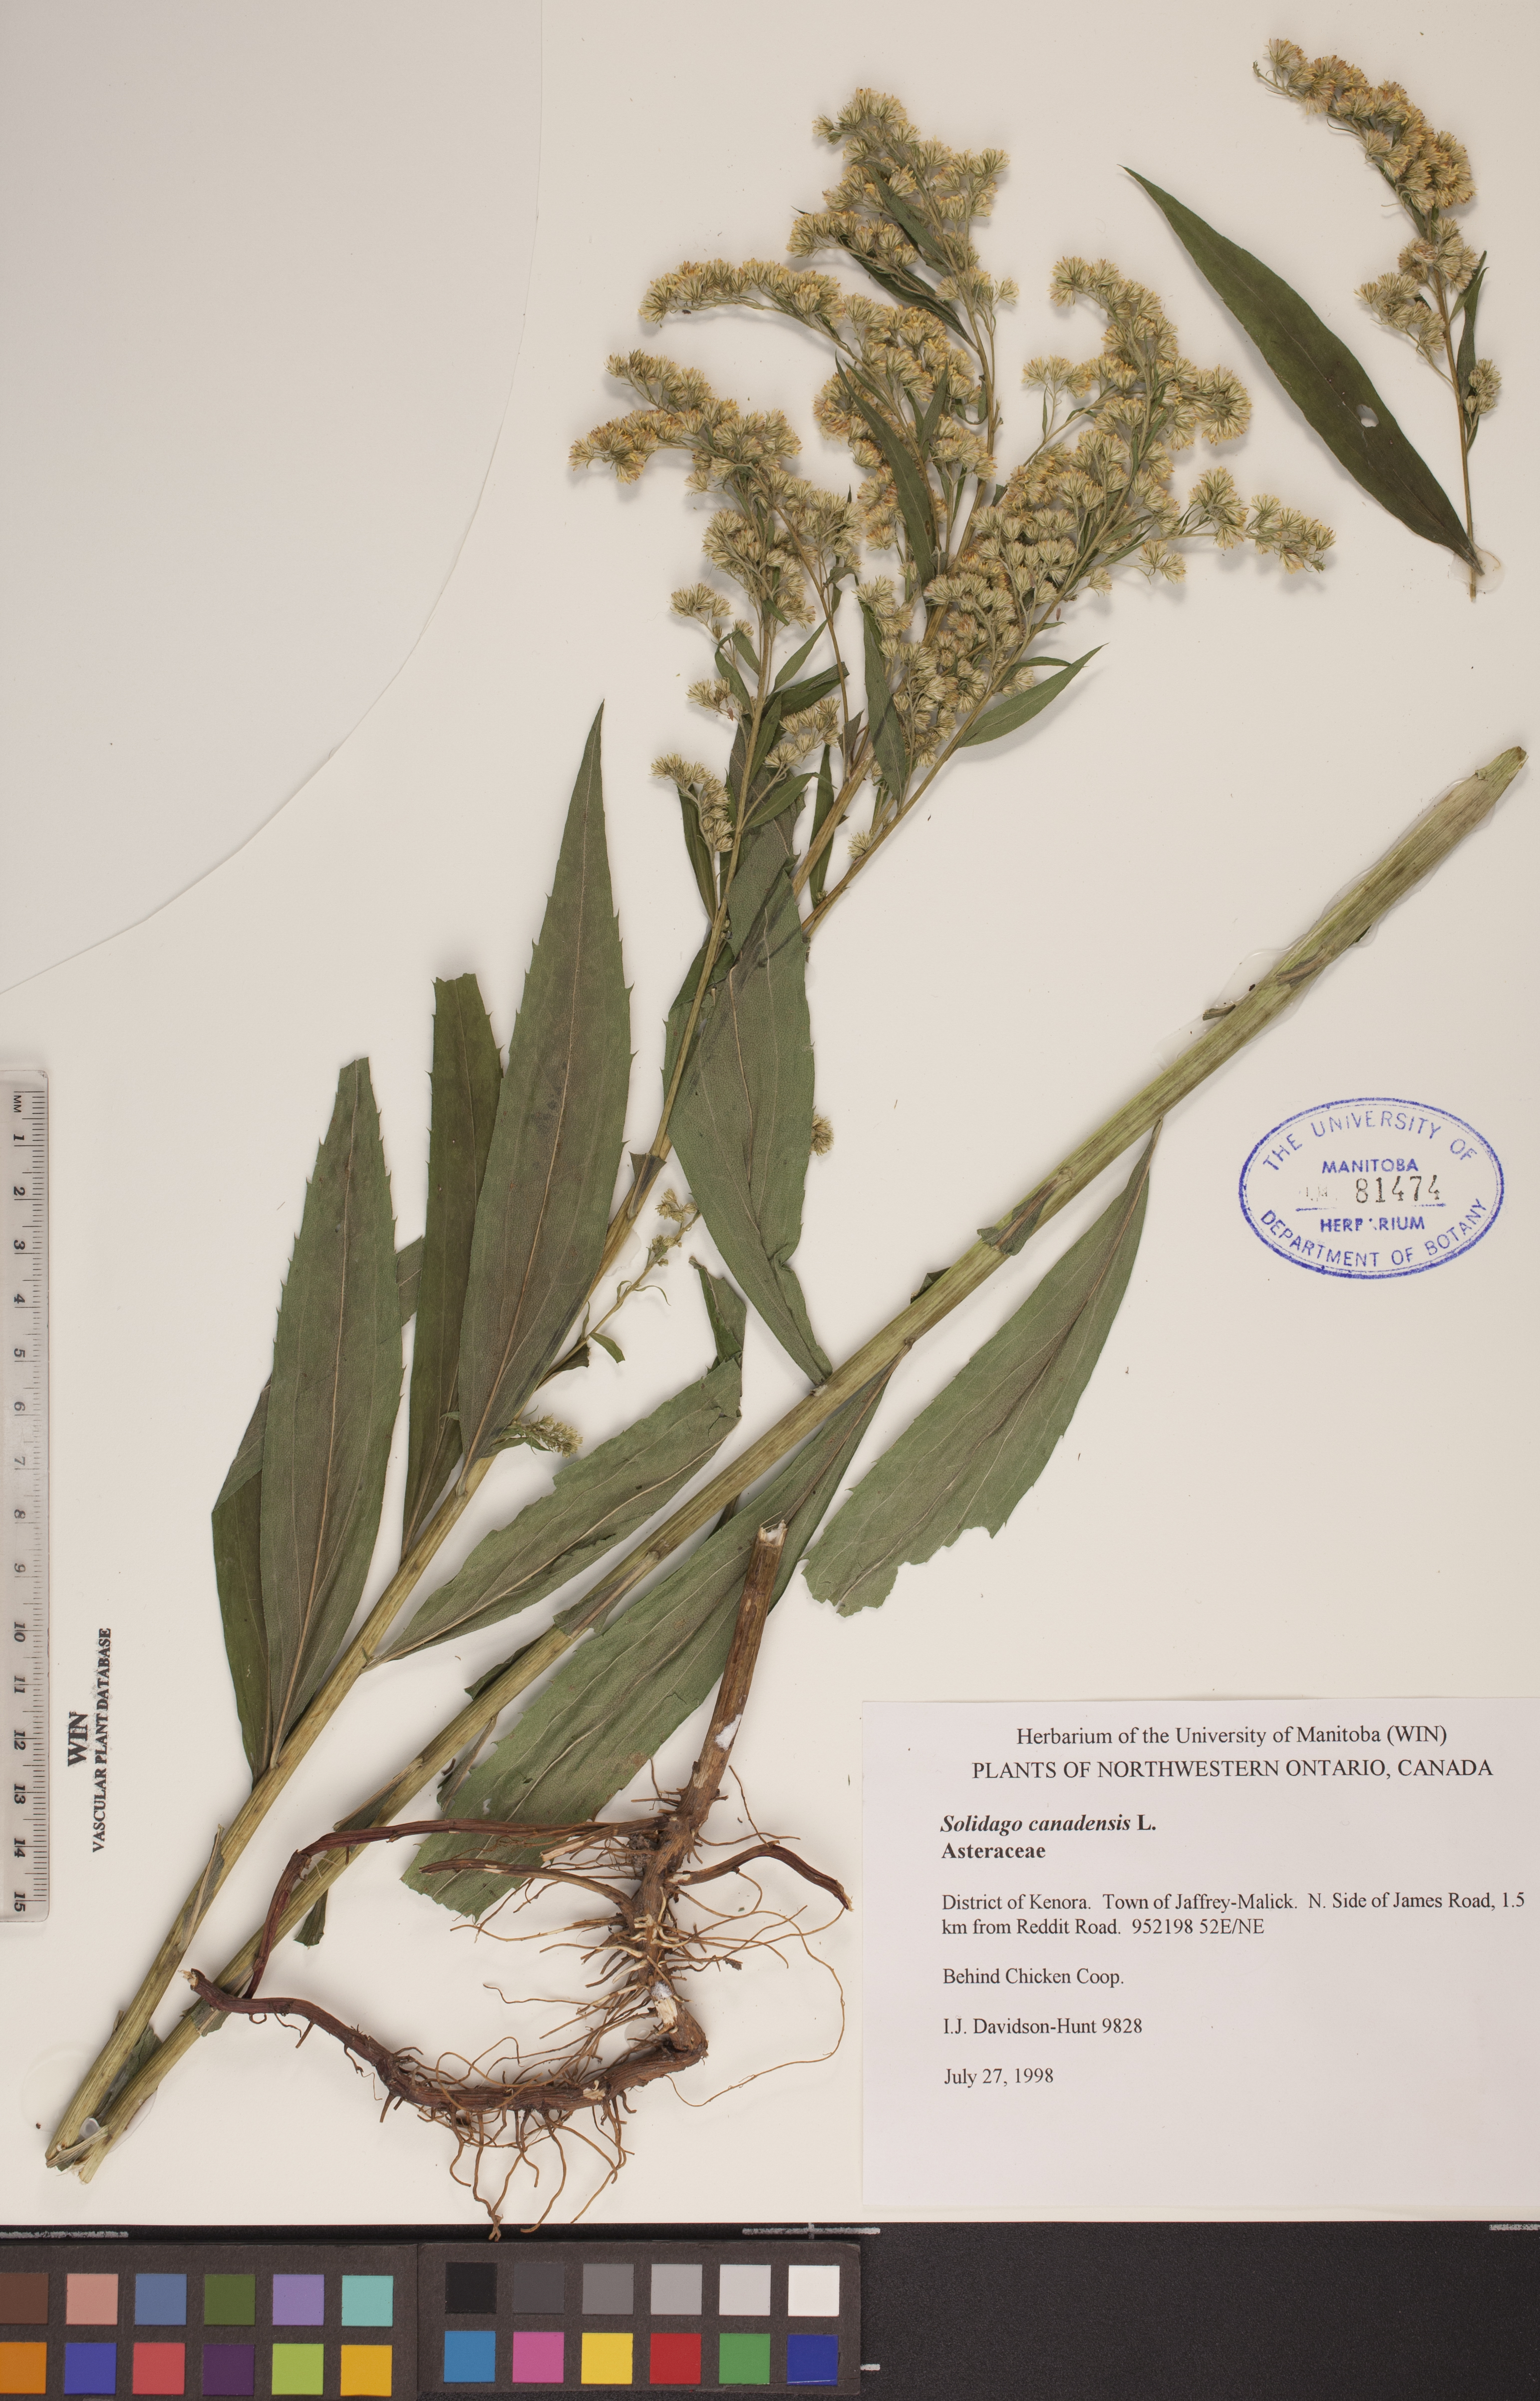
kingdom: Plantae
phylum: Tracheophyta
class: Magnoliopsida
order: Asterales
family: Asteraceae
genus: Solidago
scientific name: Solidago canadensis
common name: Canada goldenrod
